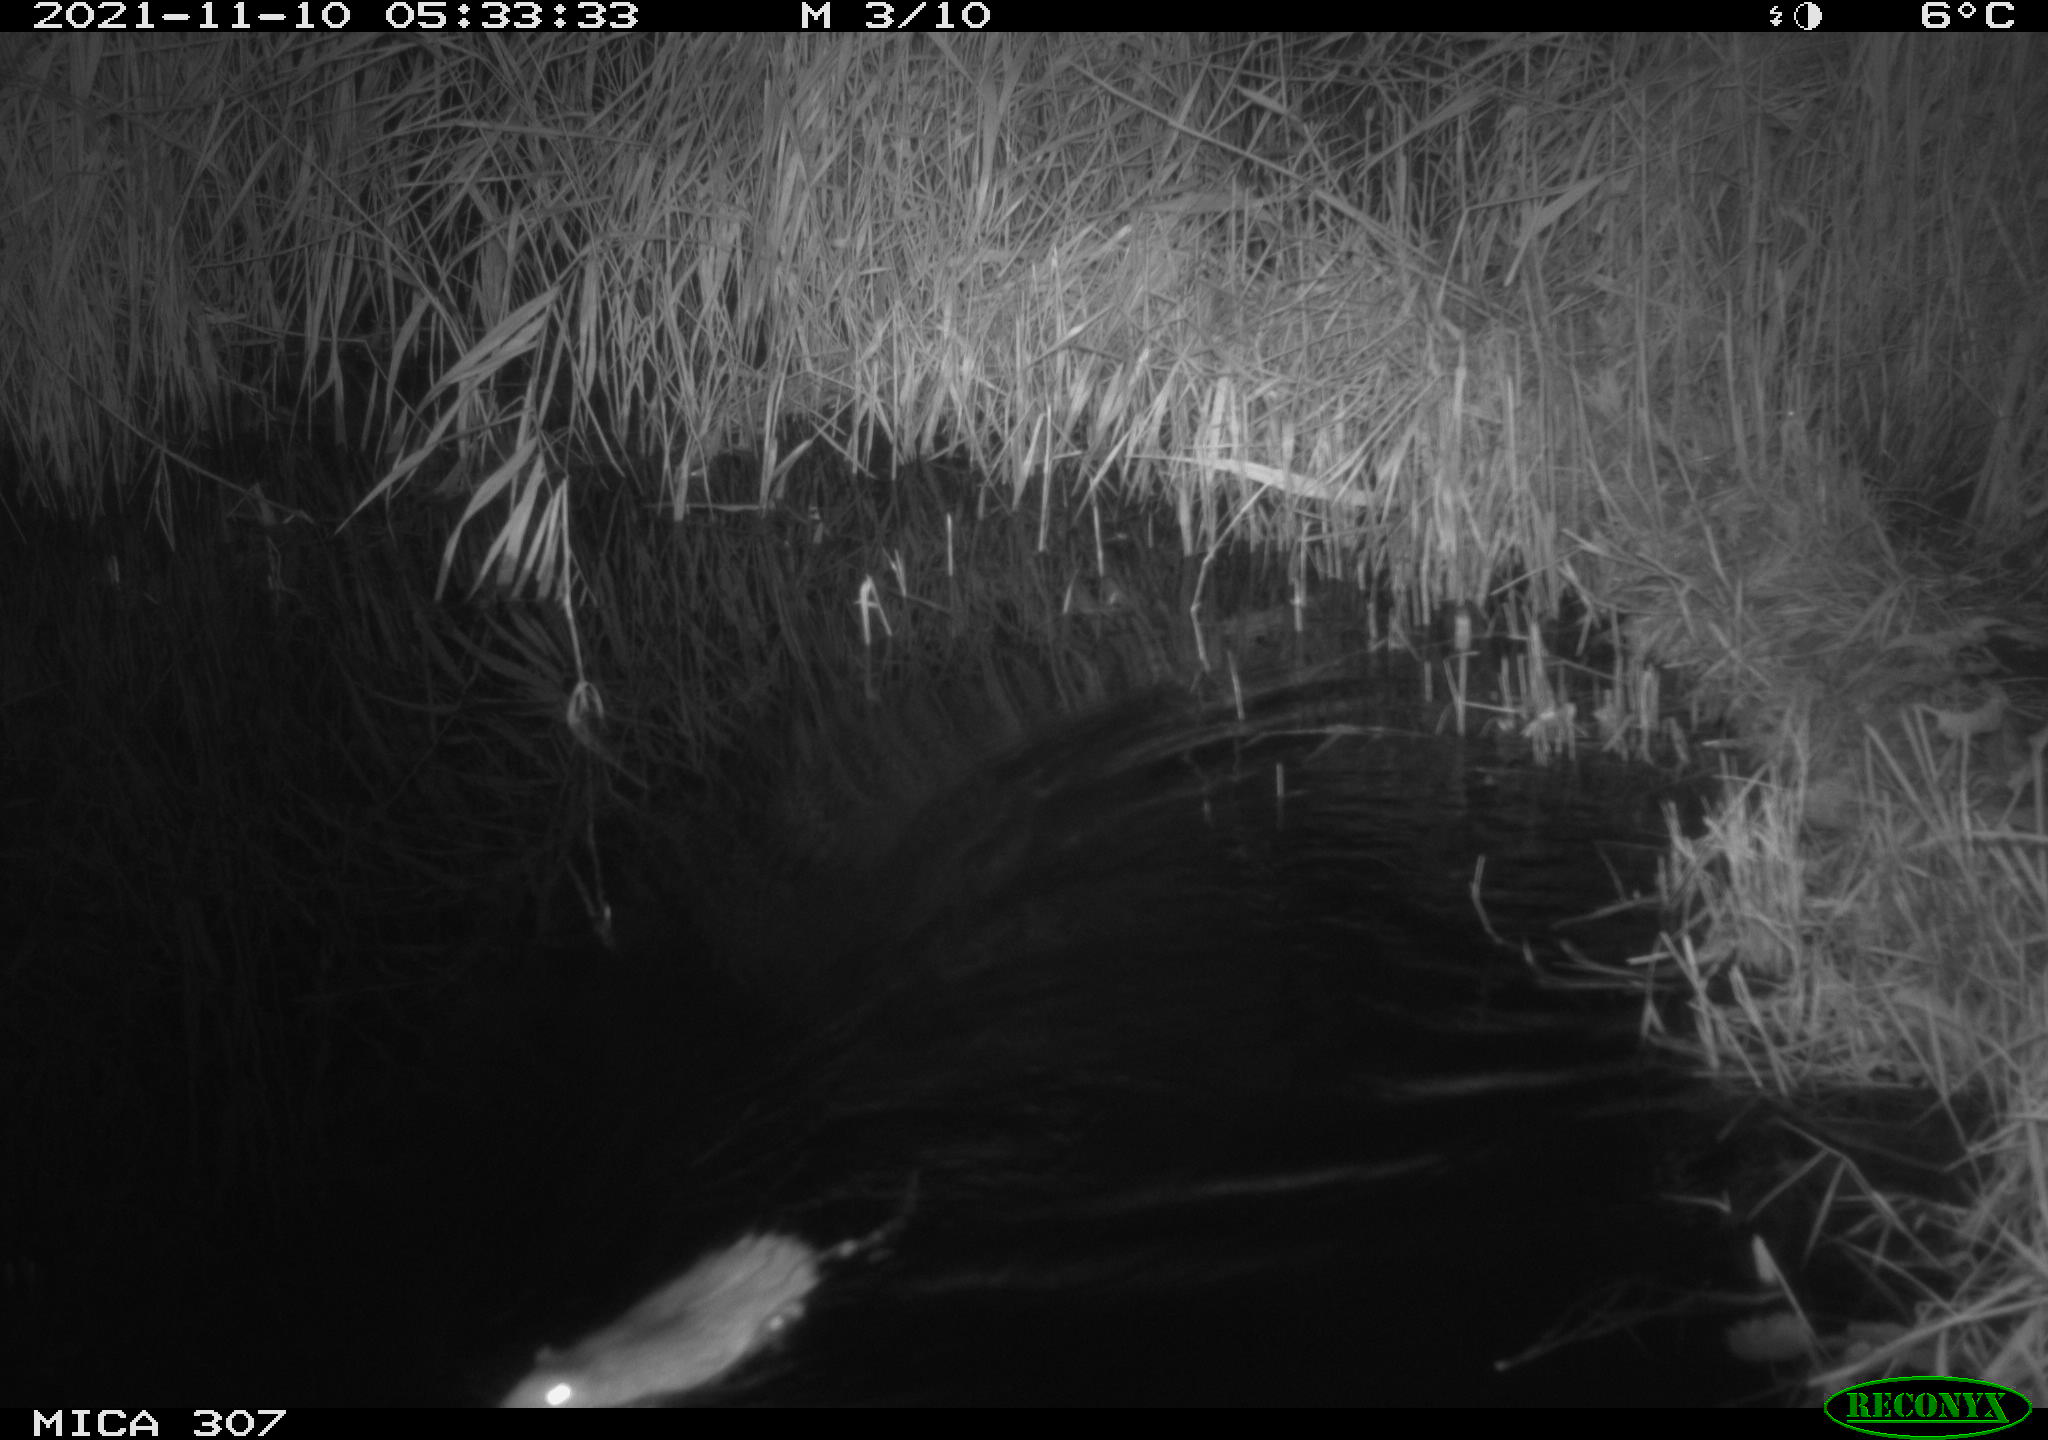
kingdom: Animalia
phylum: Chordata
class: Mammalia
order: Rodentia
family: Muridae
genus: Rattus
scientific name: Rattus norvegicus
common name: Brown rat
